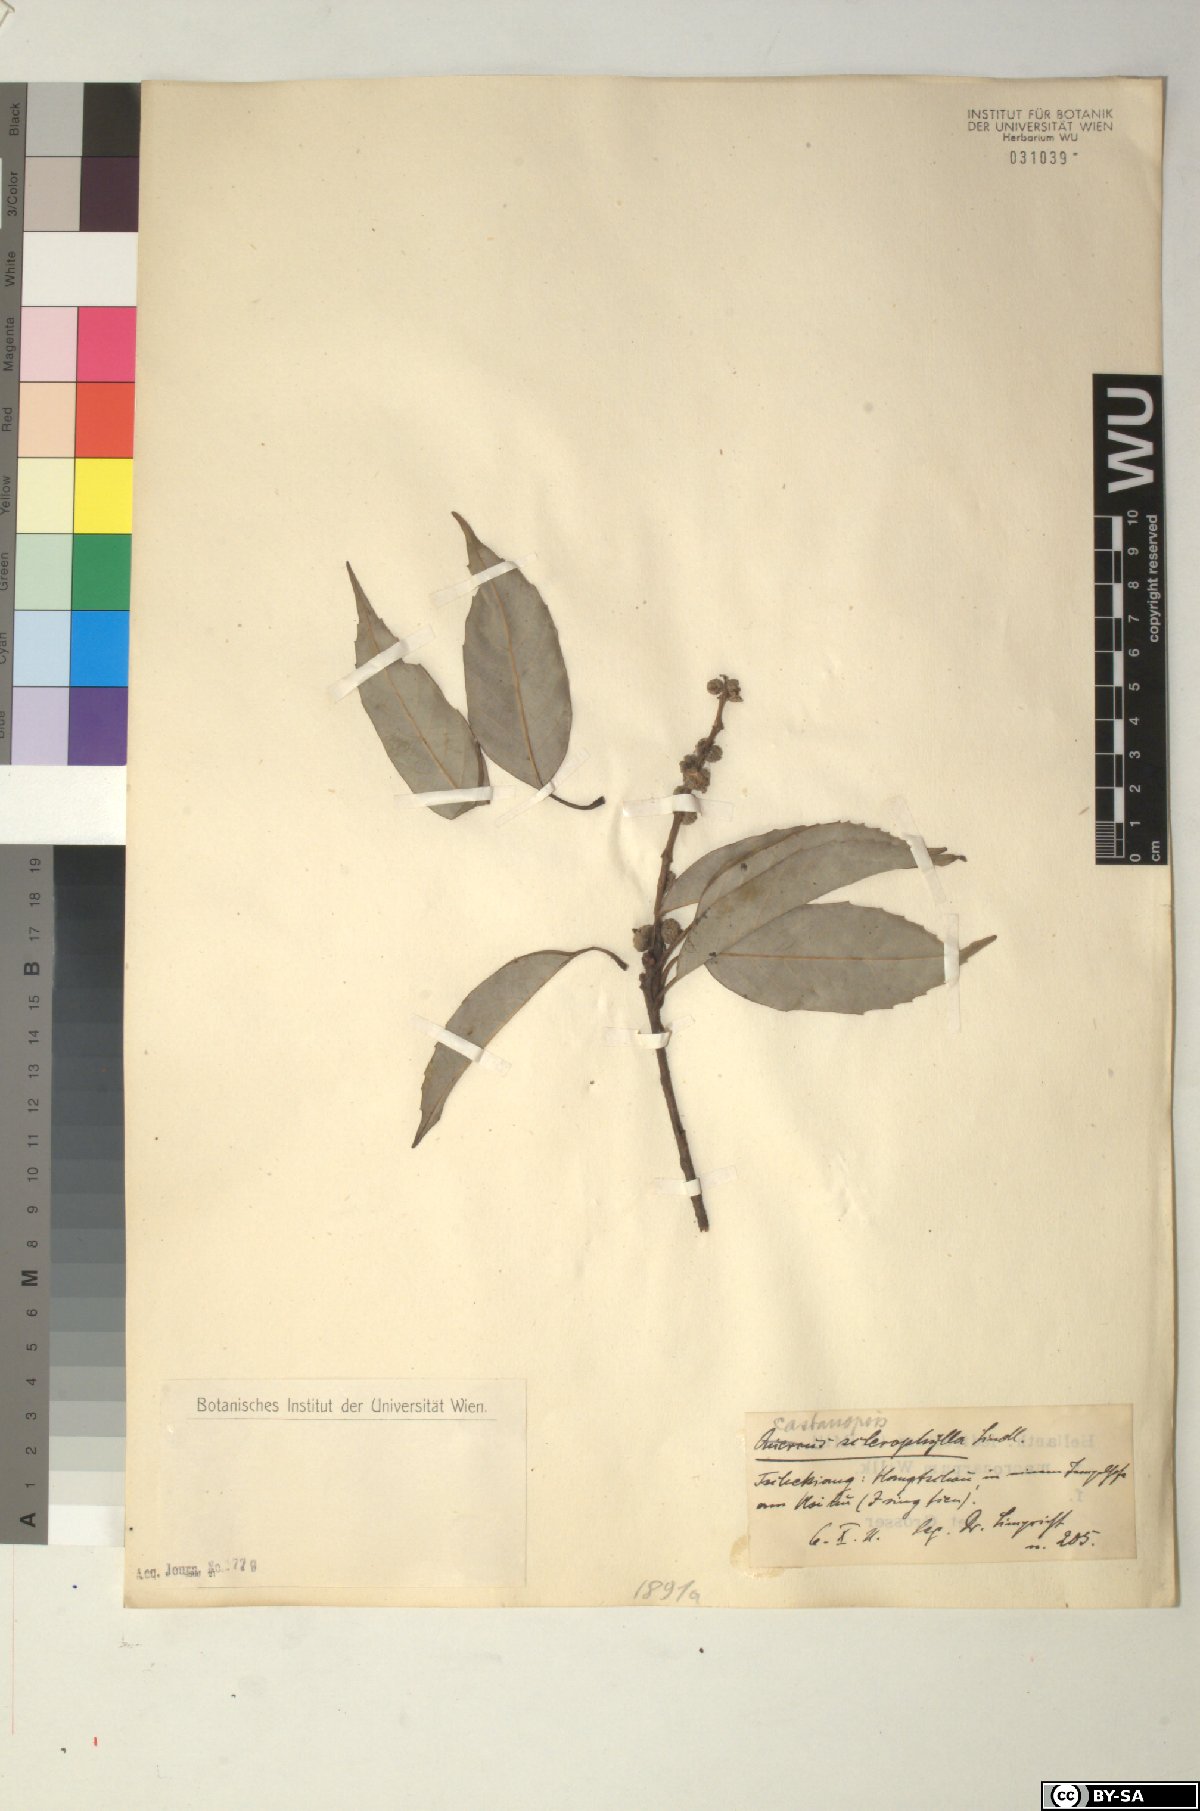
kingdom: Plantae
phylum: Tracheophyta
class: Magnoliopsida
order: Fagales
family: Fagaceae
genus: Castanopsis
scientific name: Castanopsis sclerophylla
